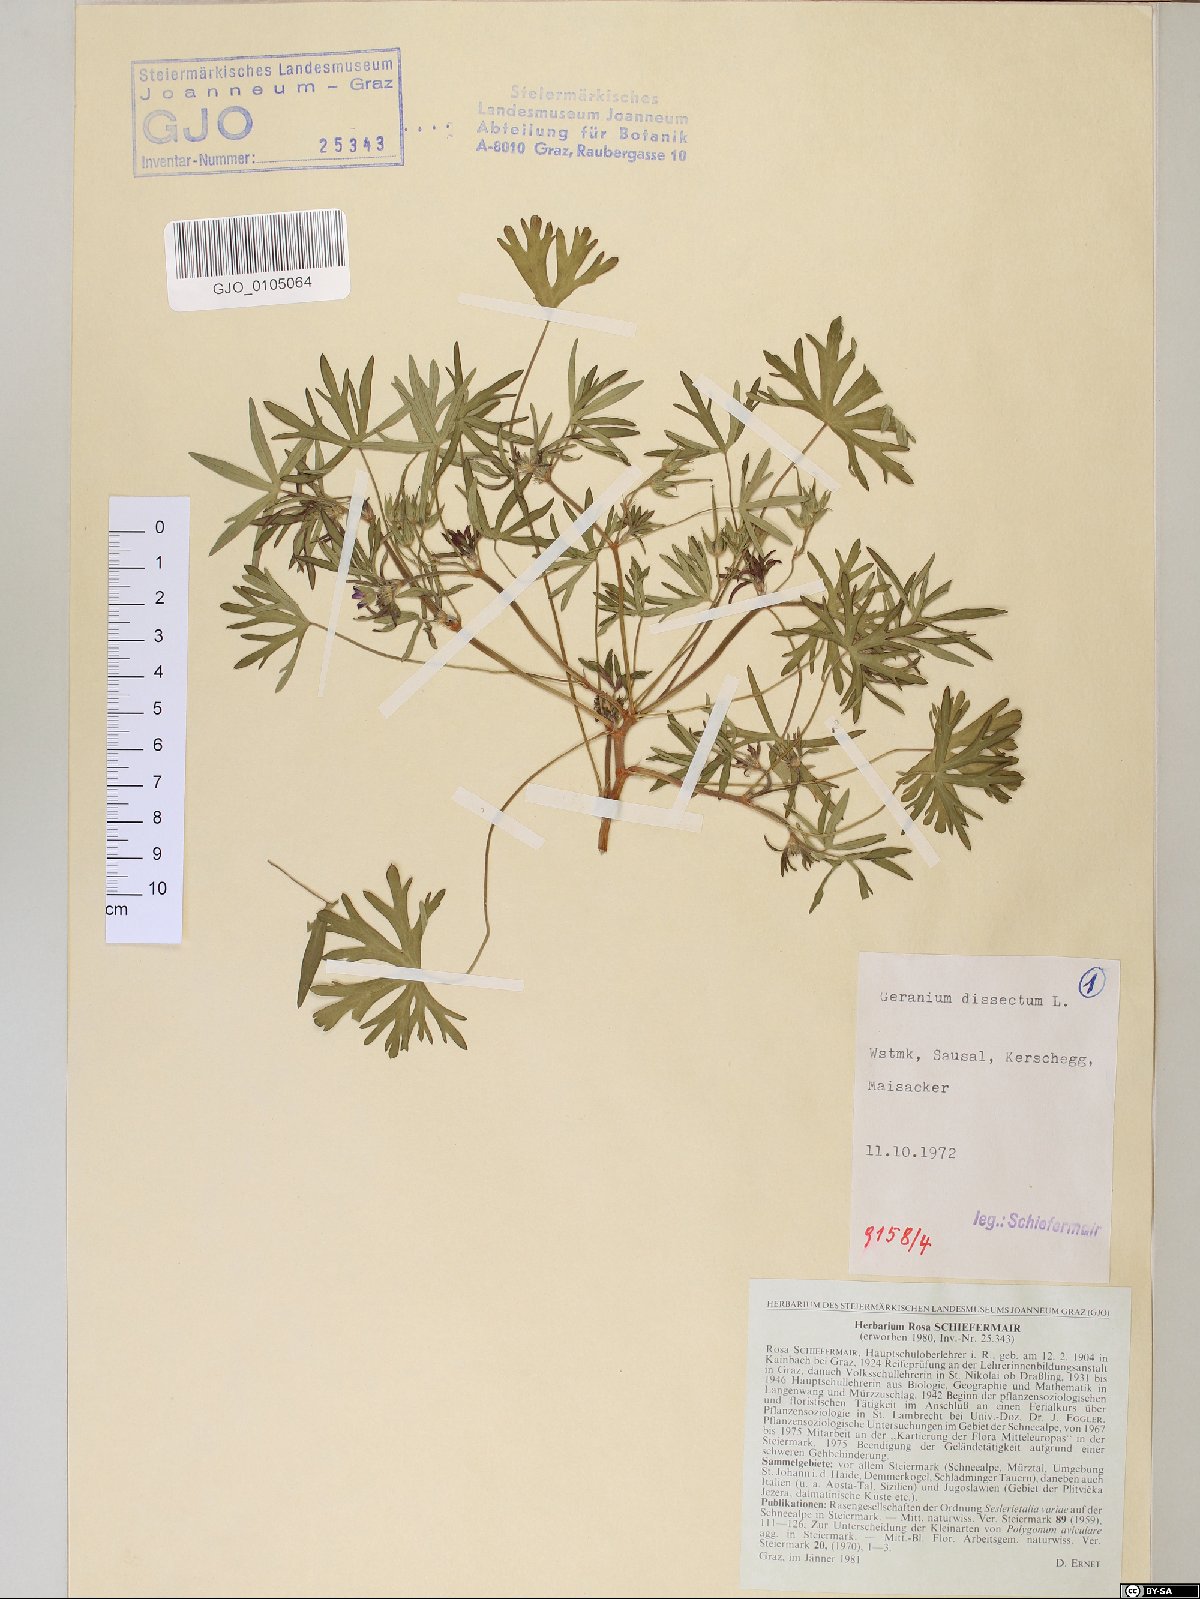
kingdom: Plantae
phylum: Tracheophyta
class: Magnoliopsida
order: Geraniales
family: Geraniaceae
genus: Geranium
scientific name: Geranium dissectum
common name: Cut-leaved crane's-bill
